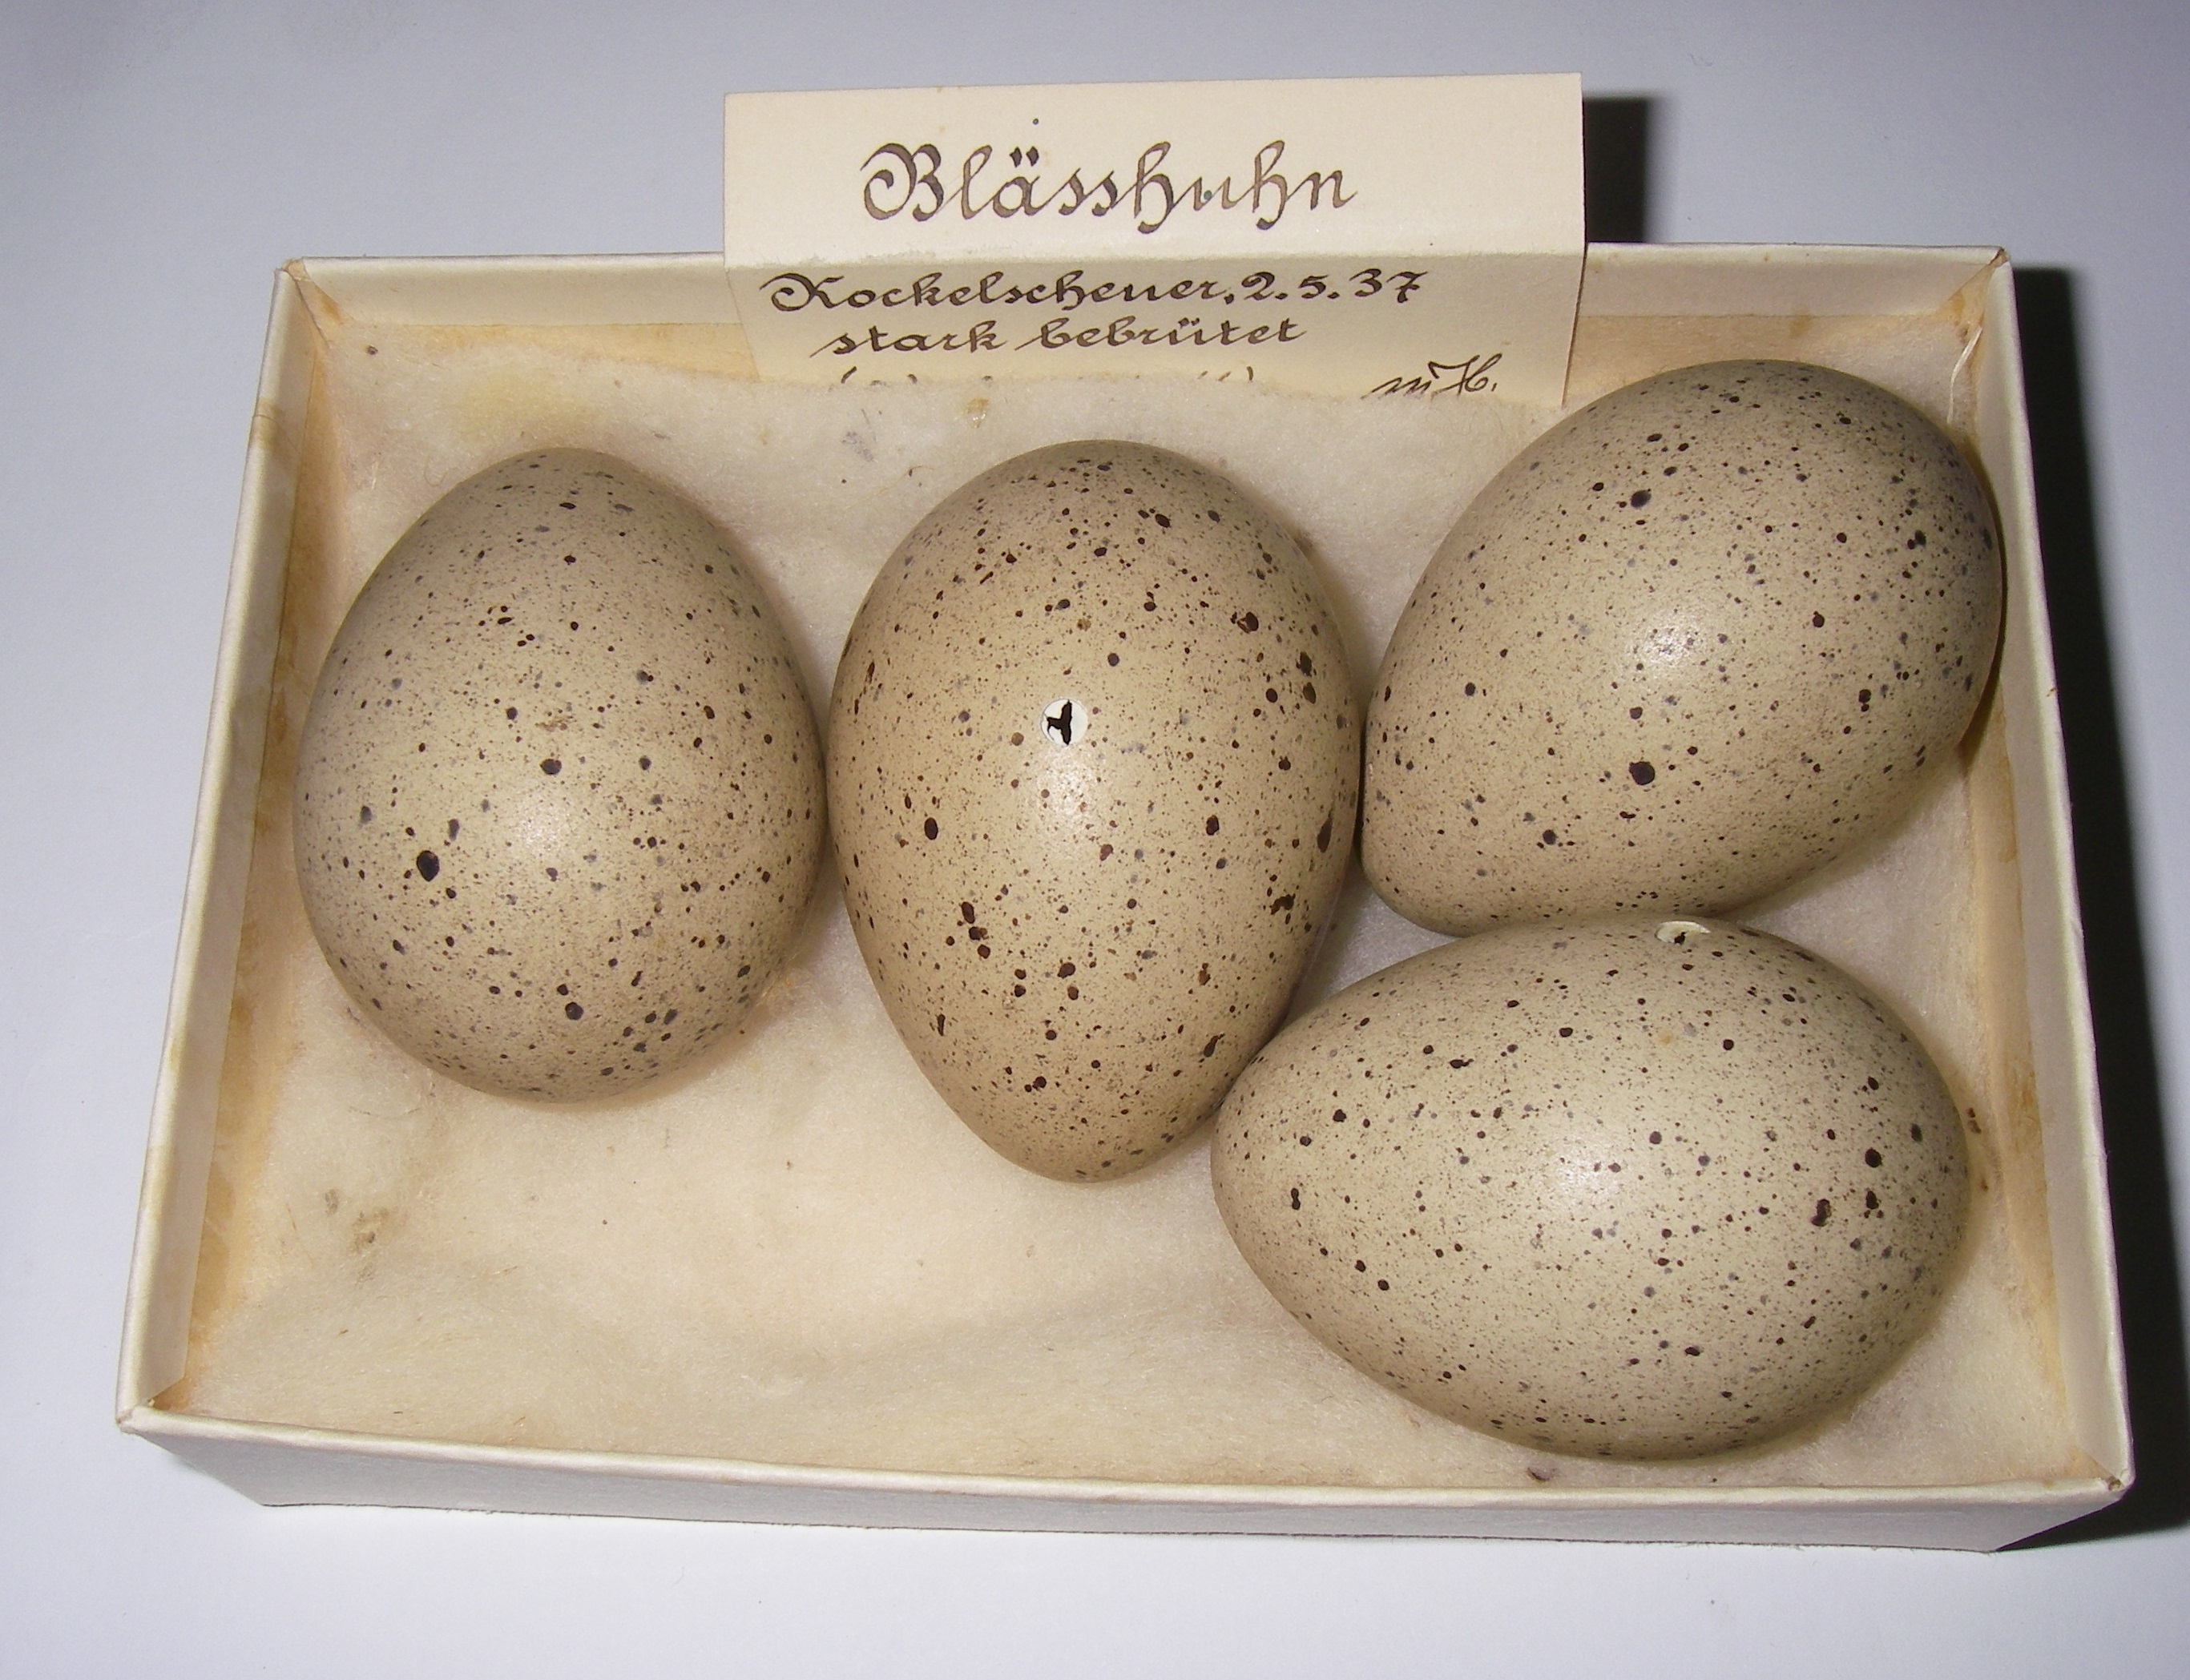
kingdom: Animalia
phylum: Chordata
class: Aves
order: Gruiformes
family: Rallidae
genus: Fulica
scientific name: Fulica atra
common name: Eurasian coot
